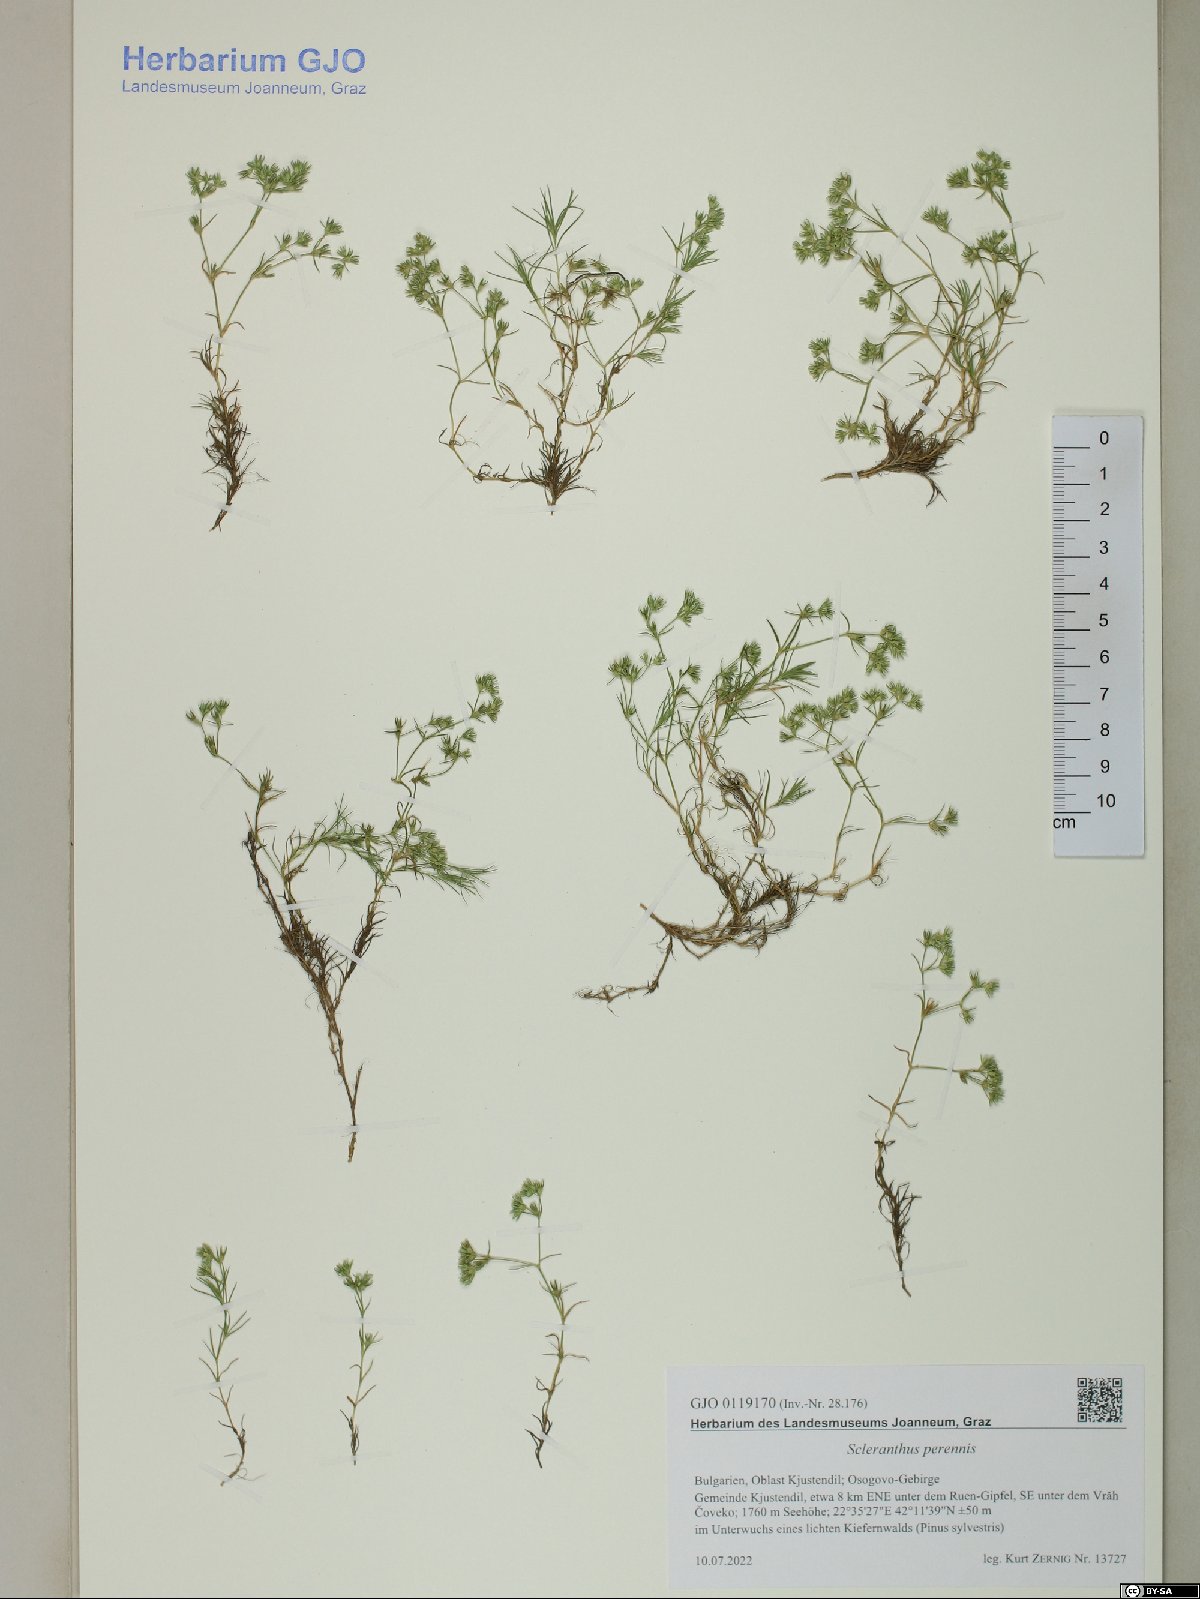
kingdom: Plantae
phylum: Tracheophyta
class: Magnoliopsida
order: Caryophyllales
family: Caryophyllaceae
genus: Scleranthus
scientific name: Scleranthus perennis
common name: Perennial knawel
